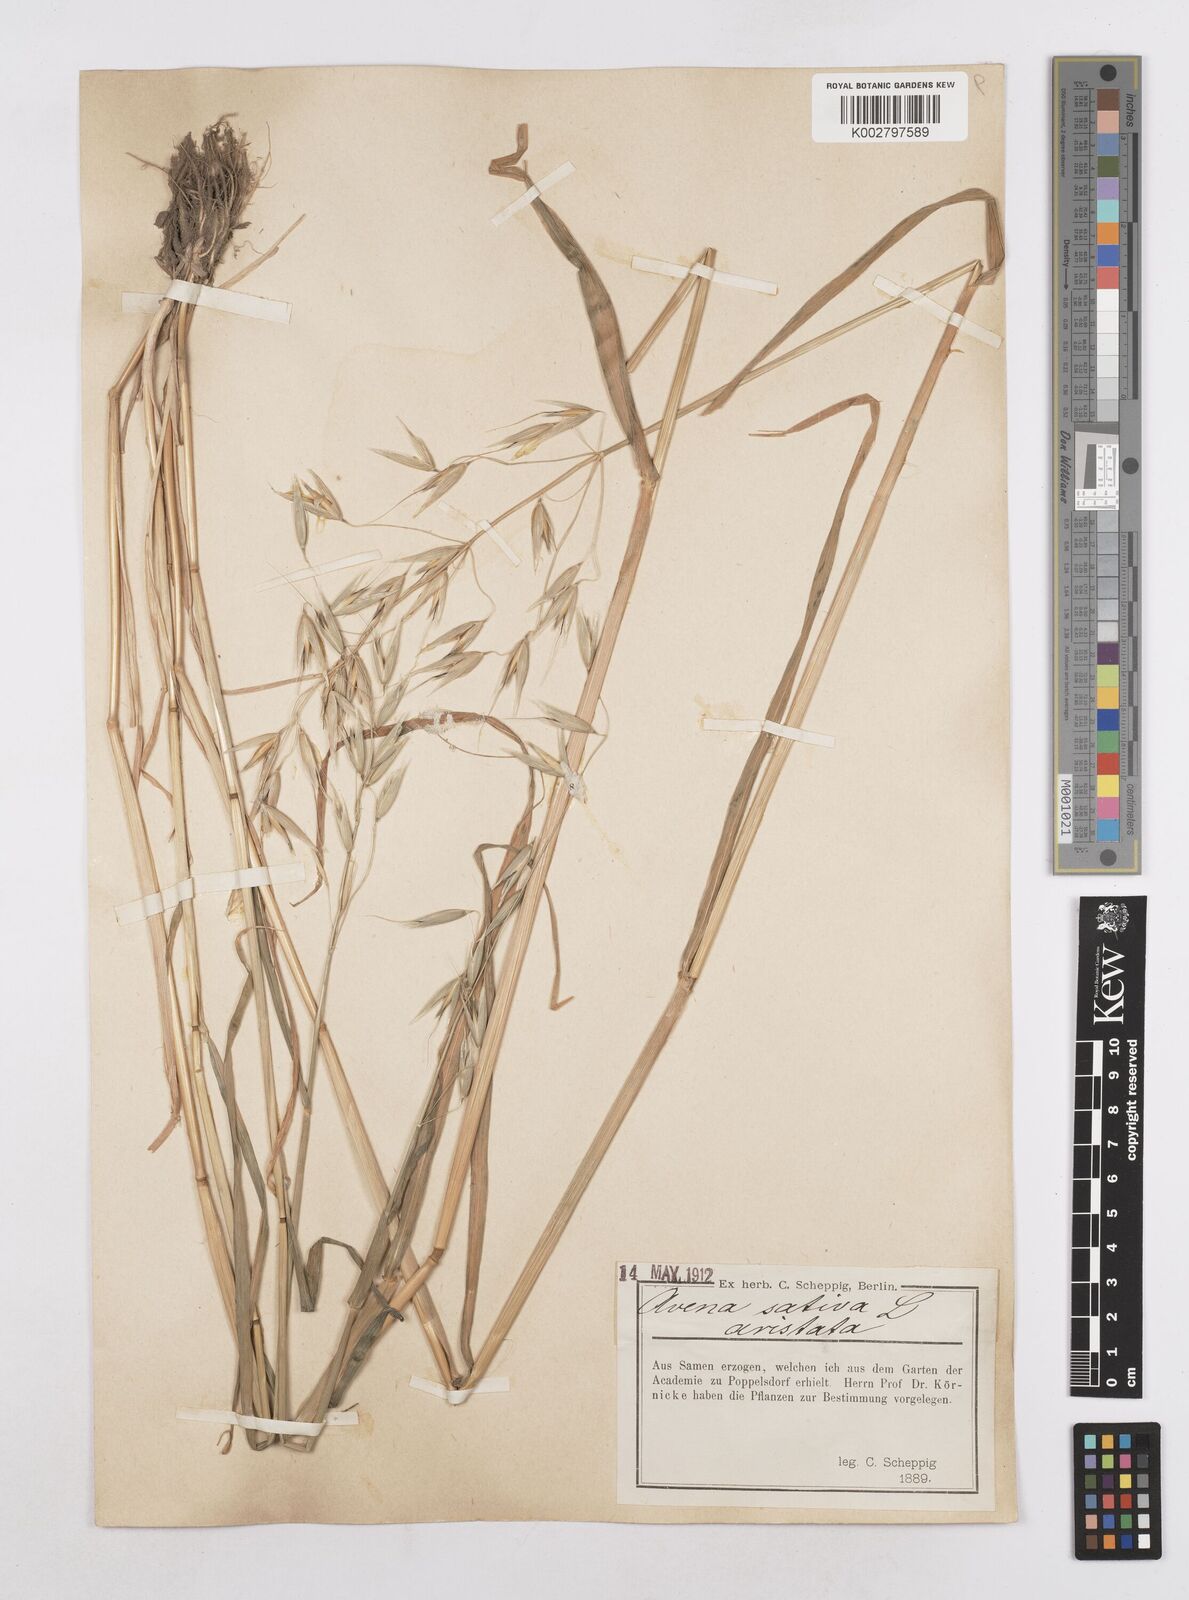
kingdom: Plantae
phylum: Tracheophyta
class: Liliopsida
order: Poales
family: Poaceae
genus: Avena
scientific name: Avena sativa
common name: Oat
